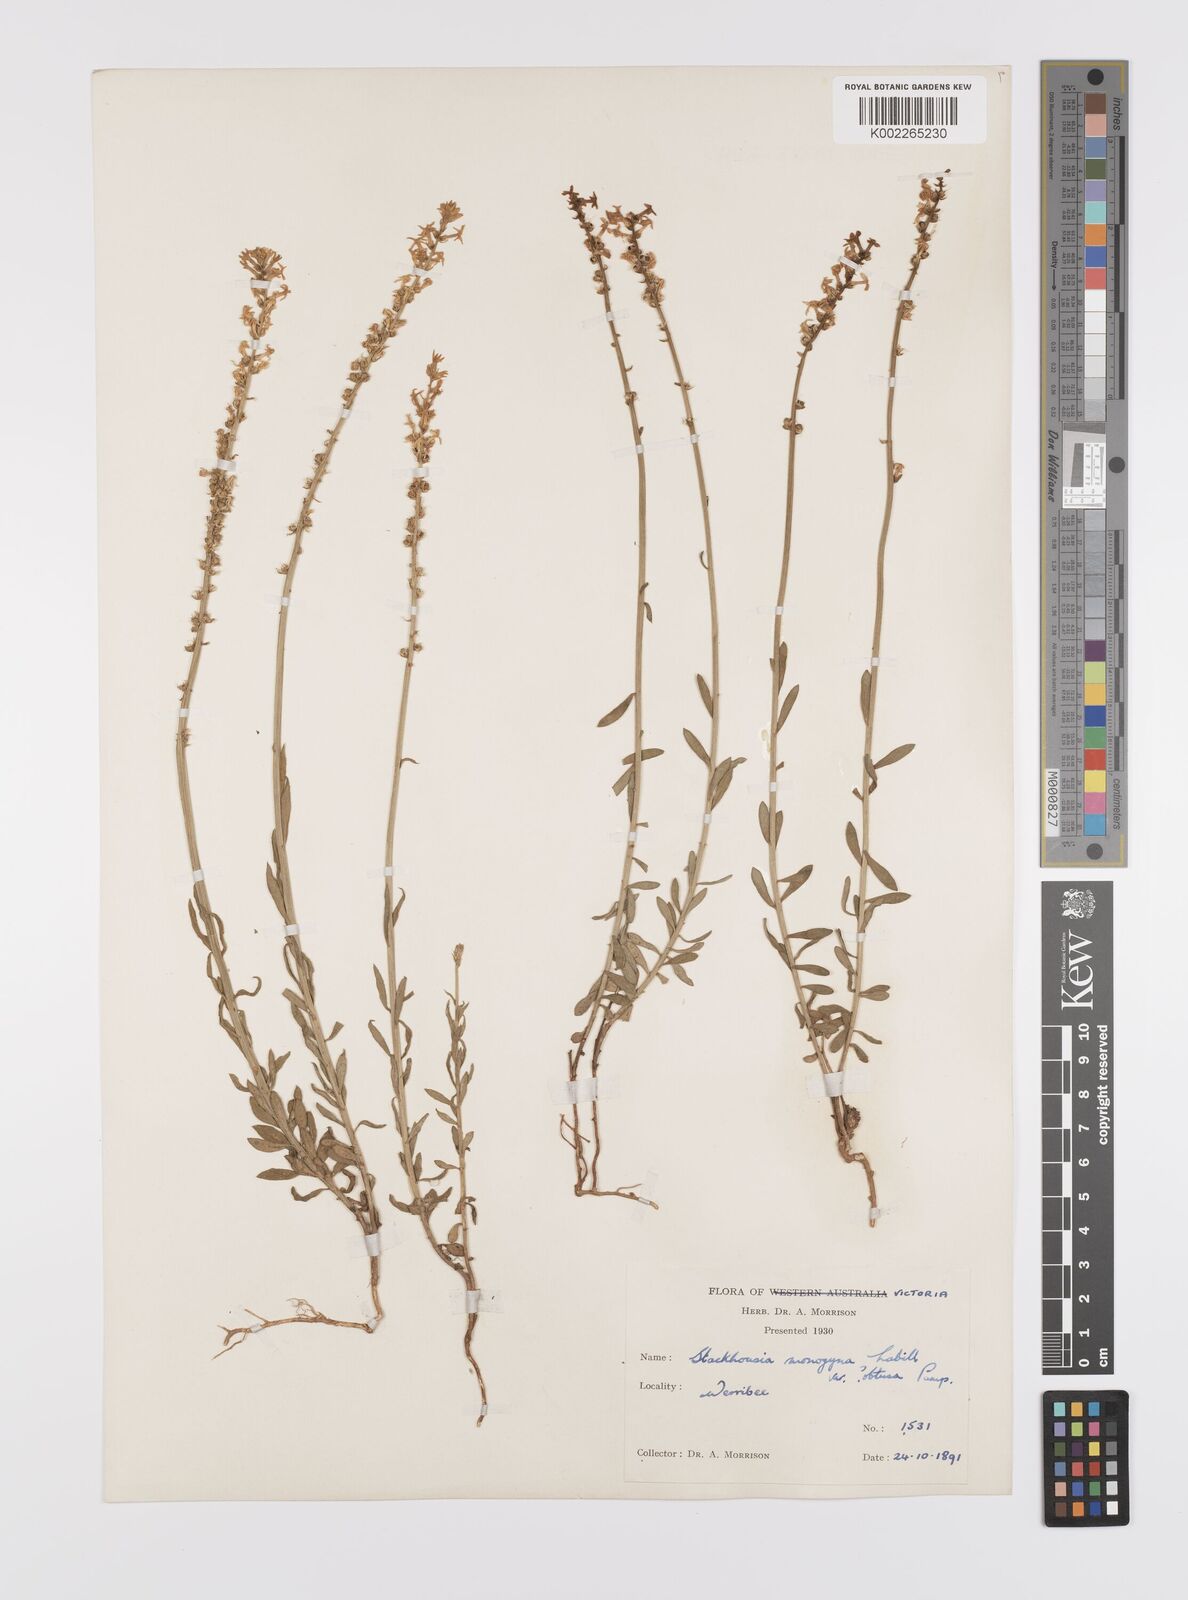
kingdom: Plantae
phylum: Tracheophyta
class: Magnoliopsida
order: Celastrales
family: Celastraceae
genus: Stackhousia
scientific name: Stackhousia monogyna
